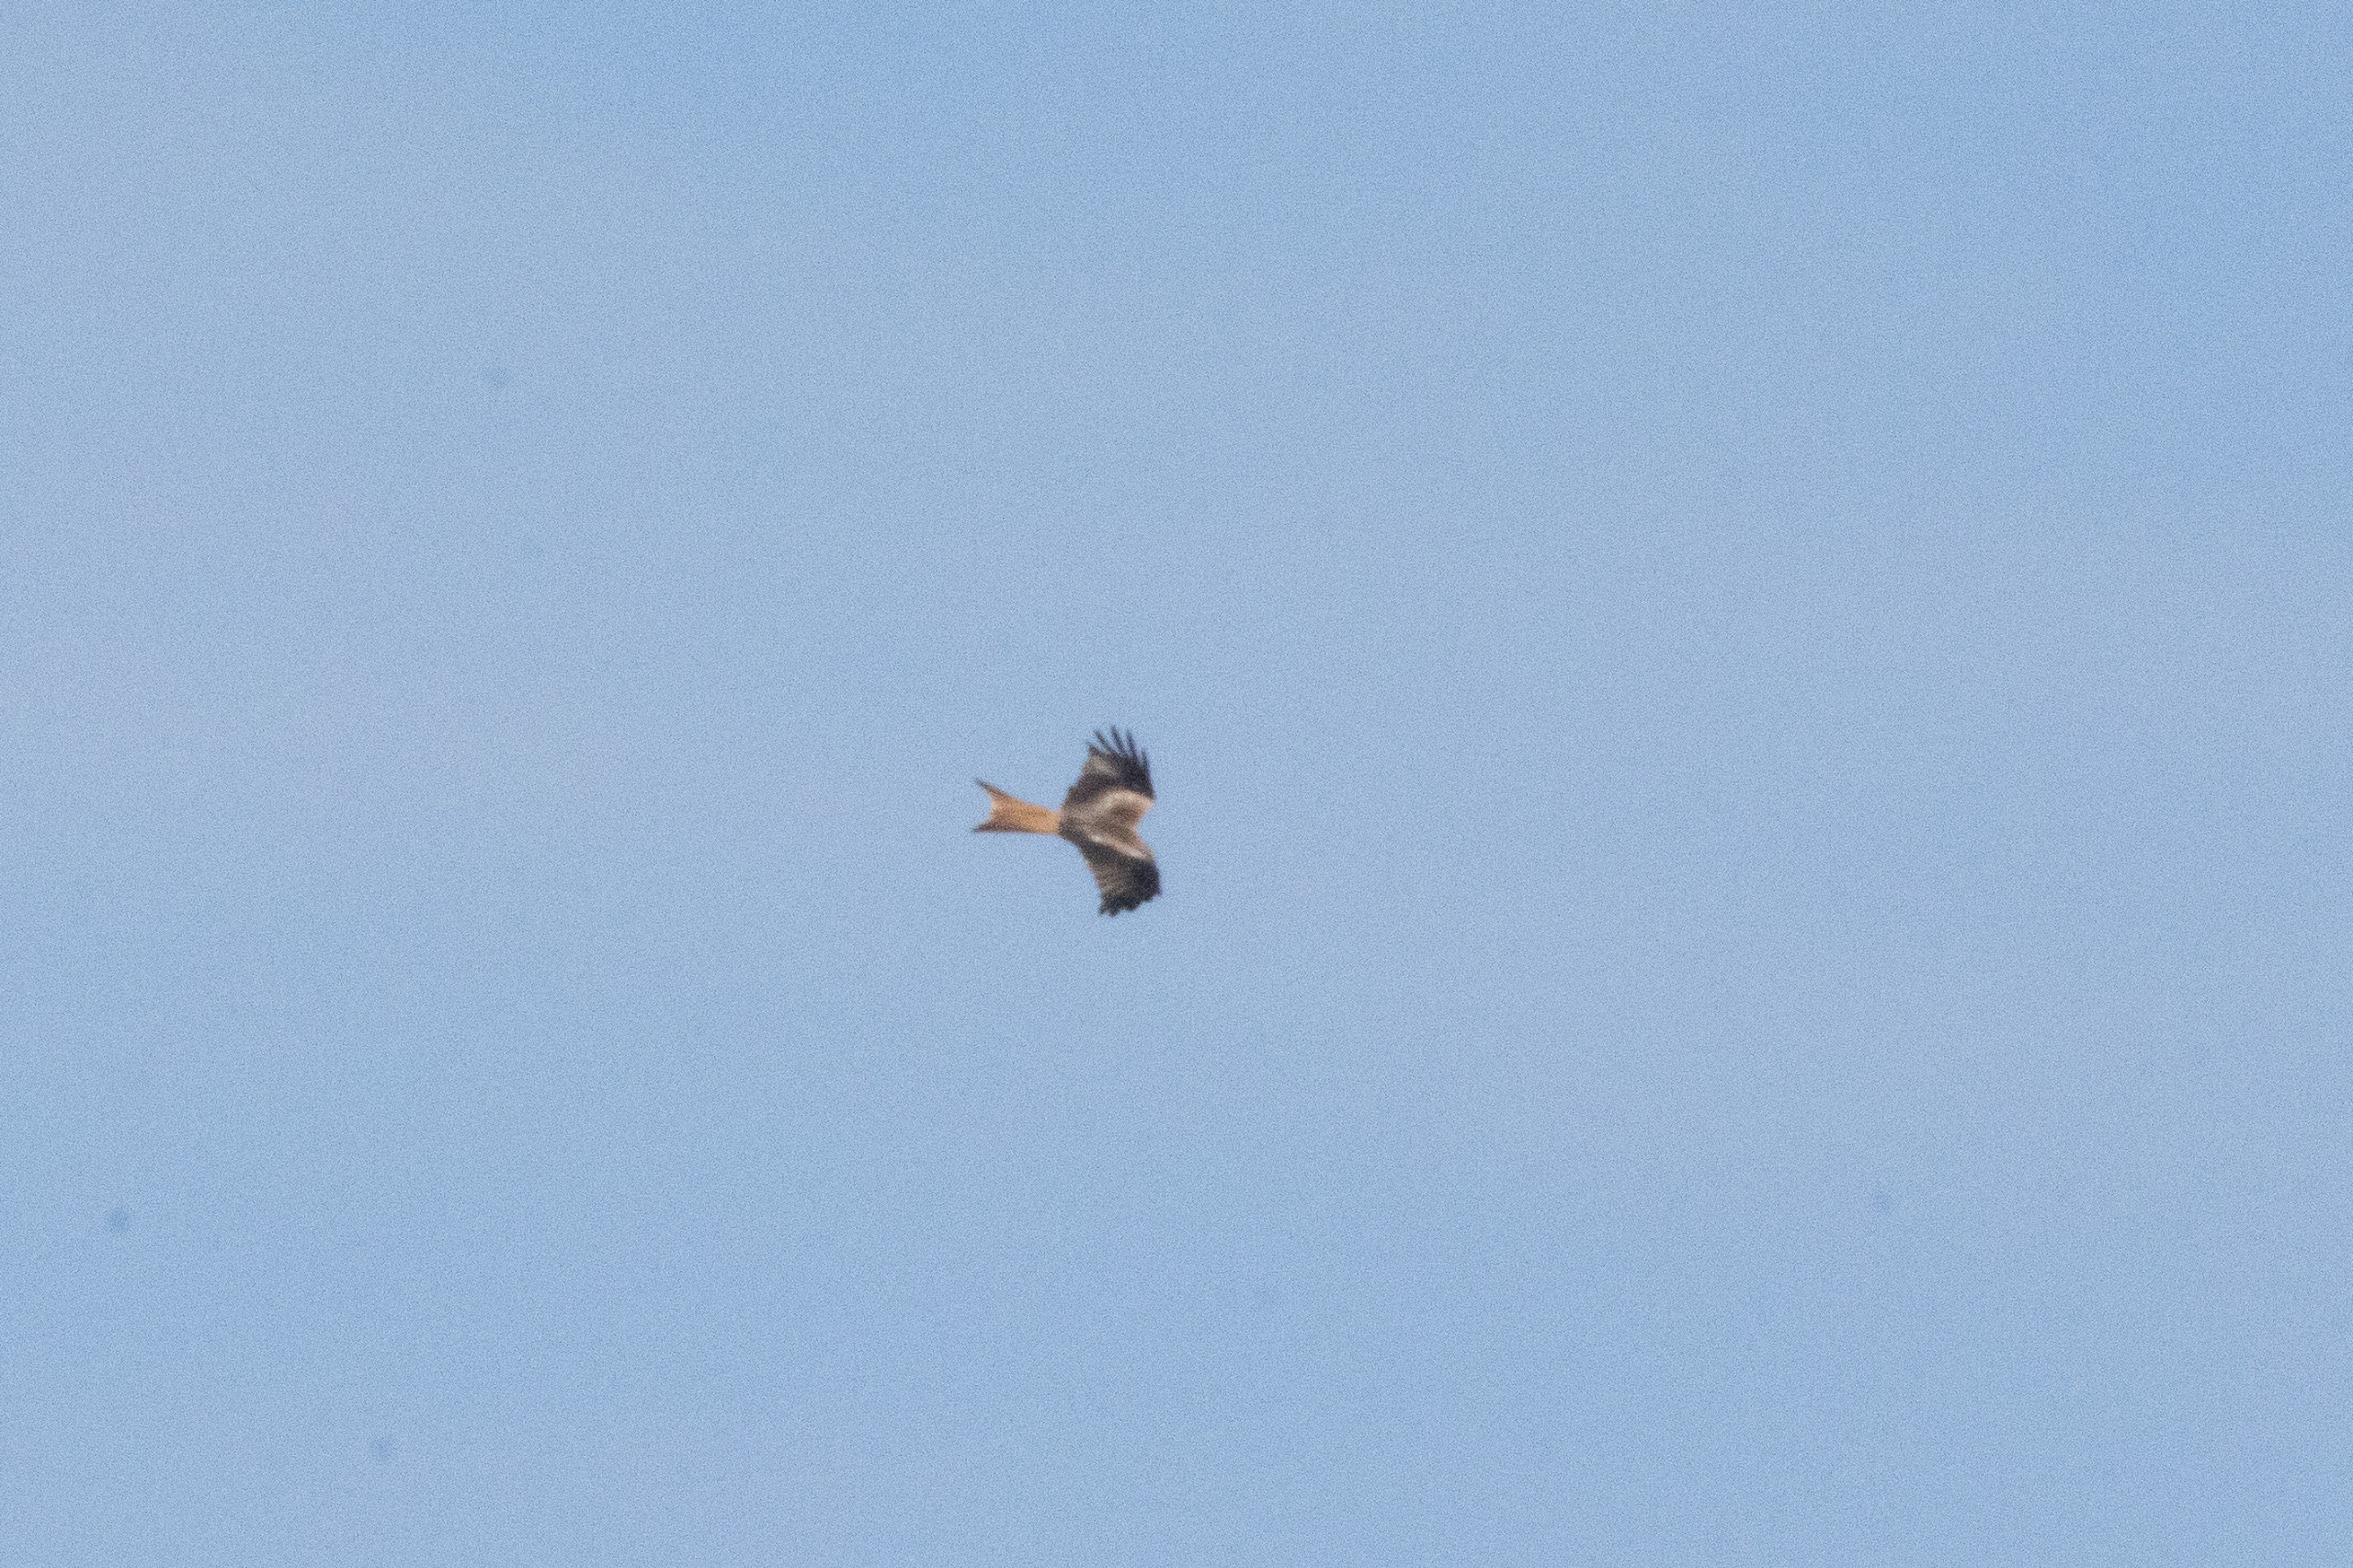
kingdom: Animalia
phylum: Chordata
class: Aves
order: Accipitriformes
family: Accipitridae
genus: Milvus
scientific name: Milvus milvus
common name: Rød glente
